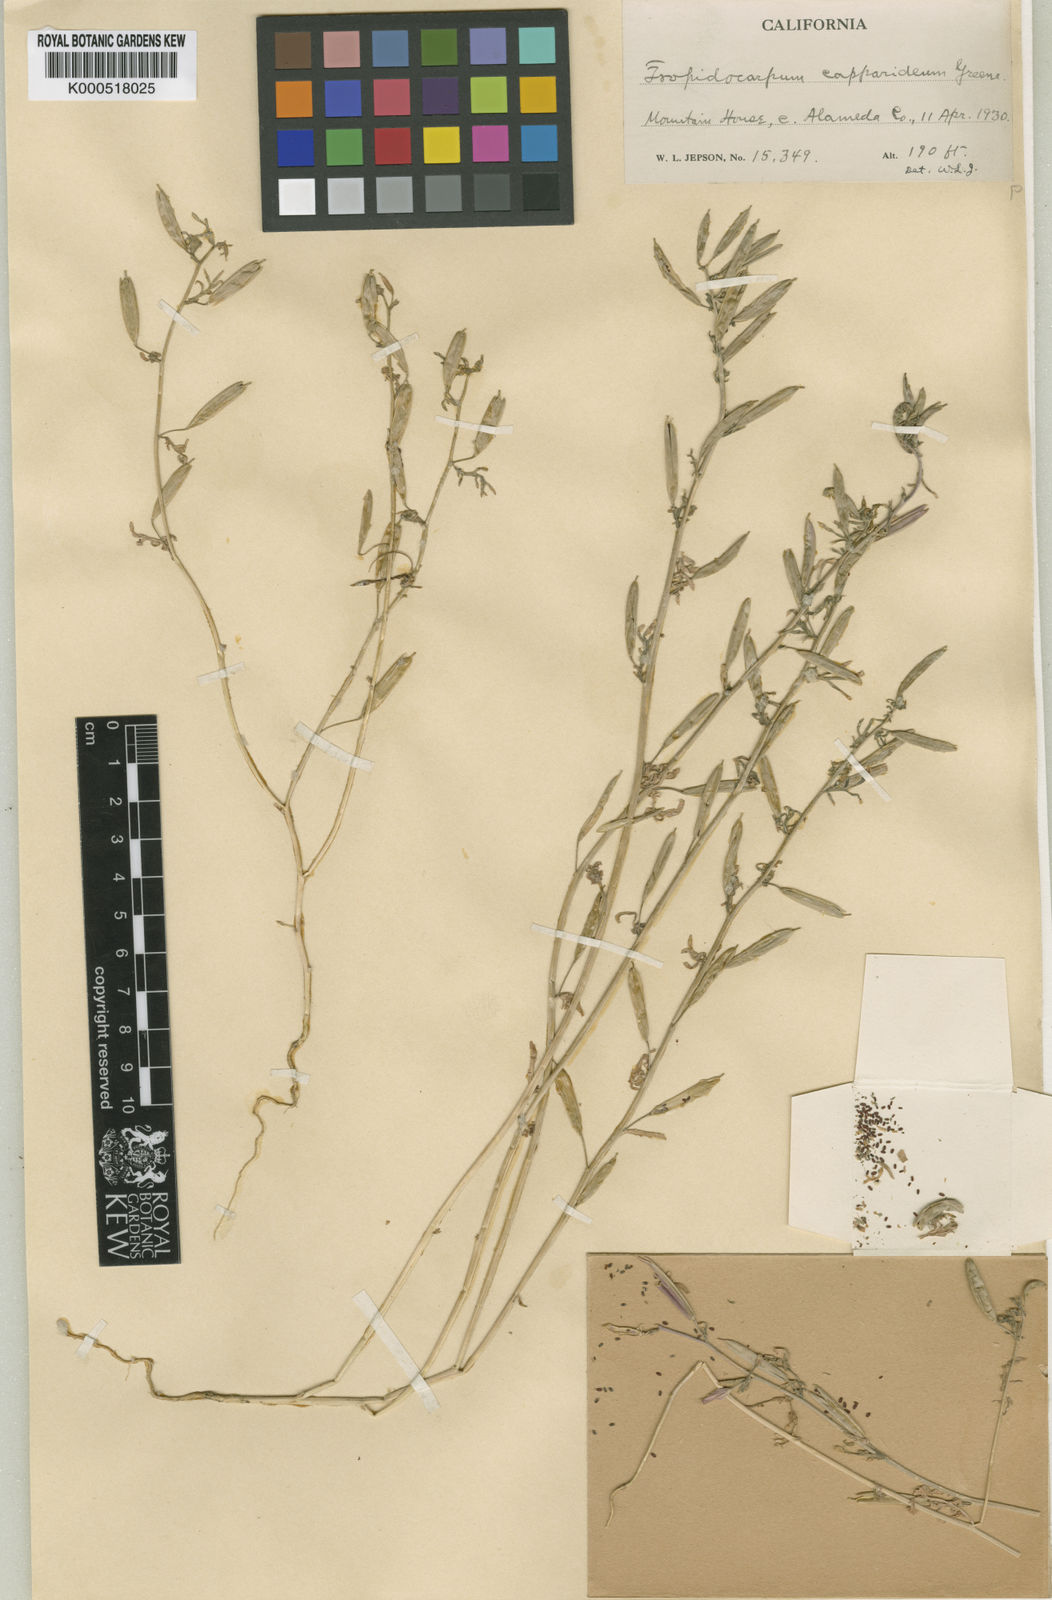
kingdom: Plantae
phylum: Tracheophyta
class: Magnoliopsida
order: Brassicales
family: Brassicaceae
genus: Tropidocarpum
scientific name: Tropidocarpum capparideum
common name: Caper-fruit tropidocarpum
